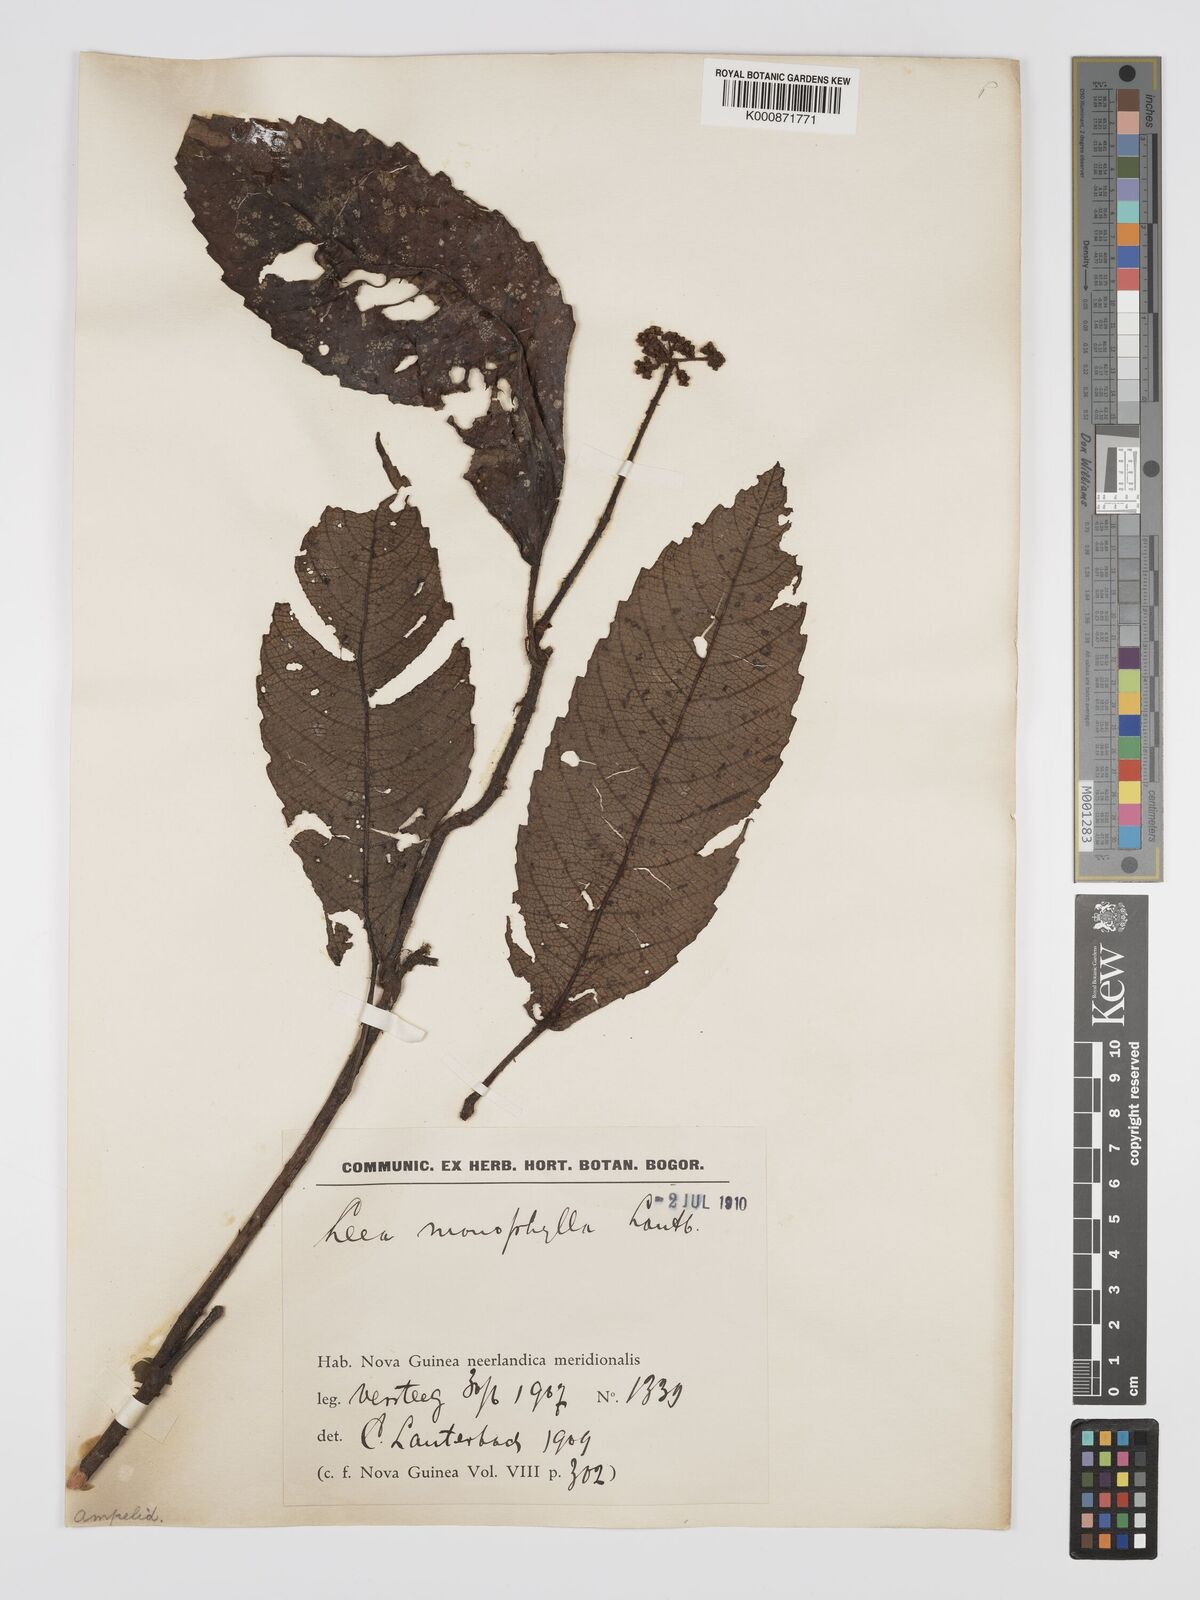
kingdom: Plantae
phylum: Tracheophyta
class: Magnoliopsida
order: Vitales
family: Vitaceae
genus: Leea
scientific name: Leea zippeliana
